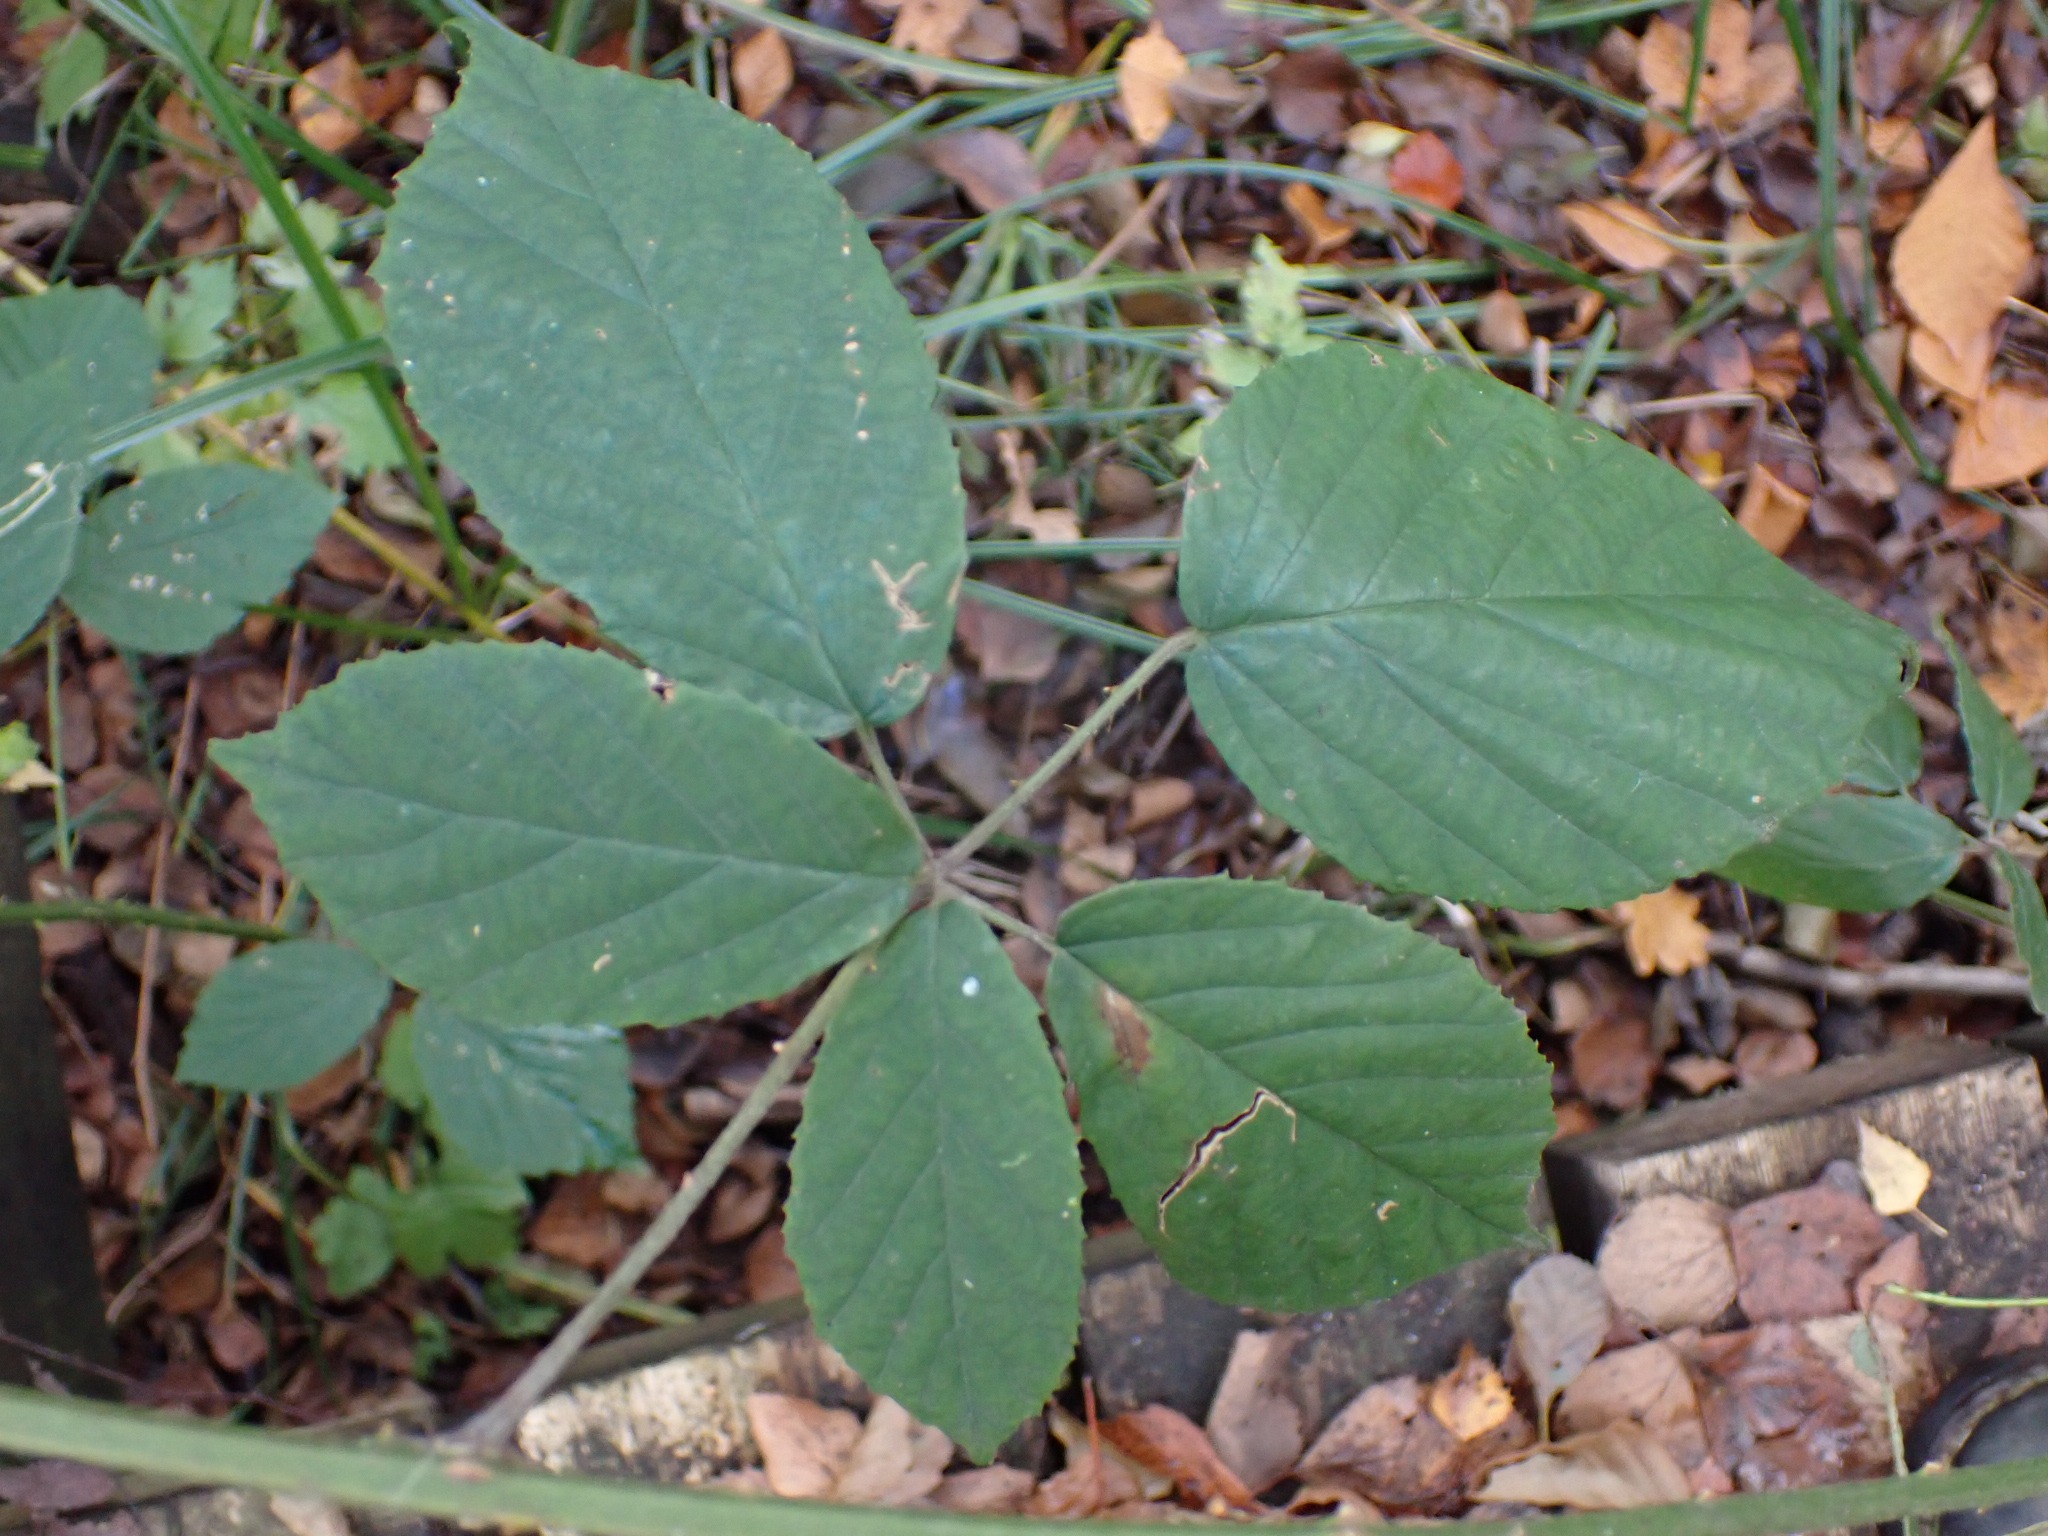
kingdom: Plantae
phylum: Tracheophyta
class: Magnoliopsida
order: Rosales
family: Rosaceae
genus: Rubus
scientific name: Rubus radula
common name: Rasperu brombær
